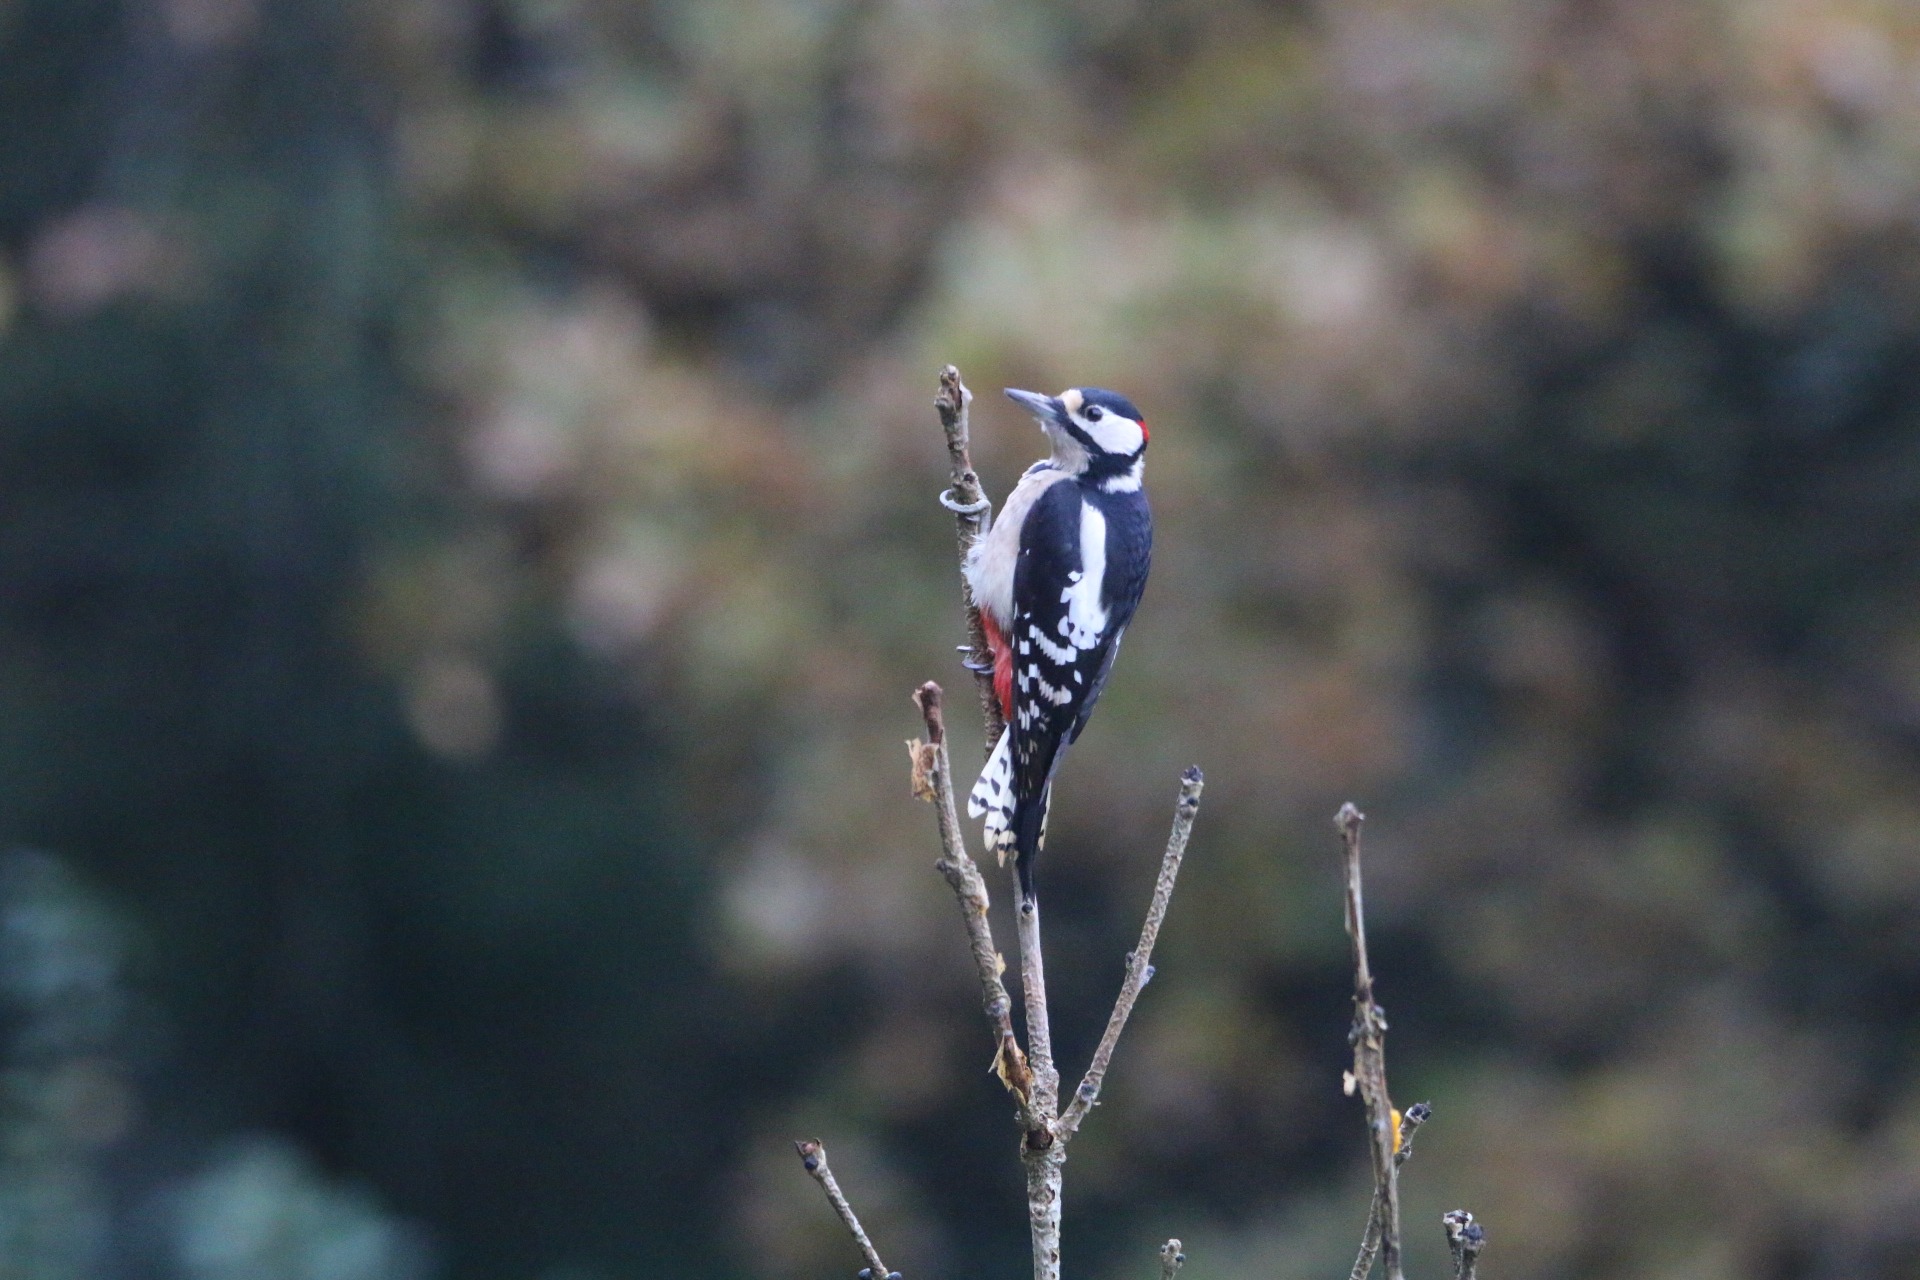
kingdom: Animalia
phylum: Chordata
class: Aves
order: Piciformes
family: Picidae
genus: Dendrocopos
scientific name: Dendrocopos major
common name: Stor flagspætte
